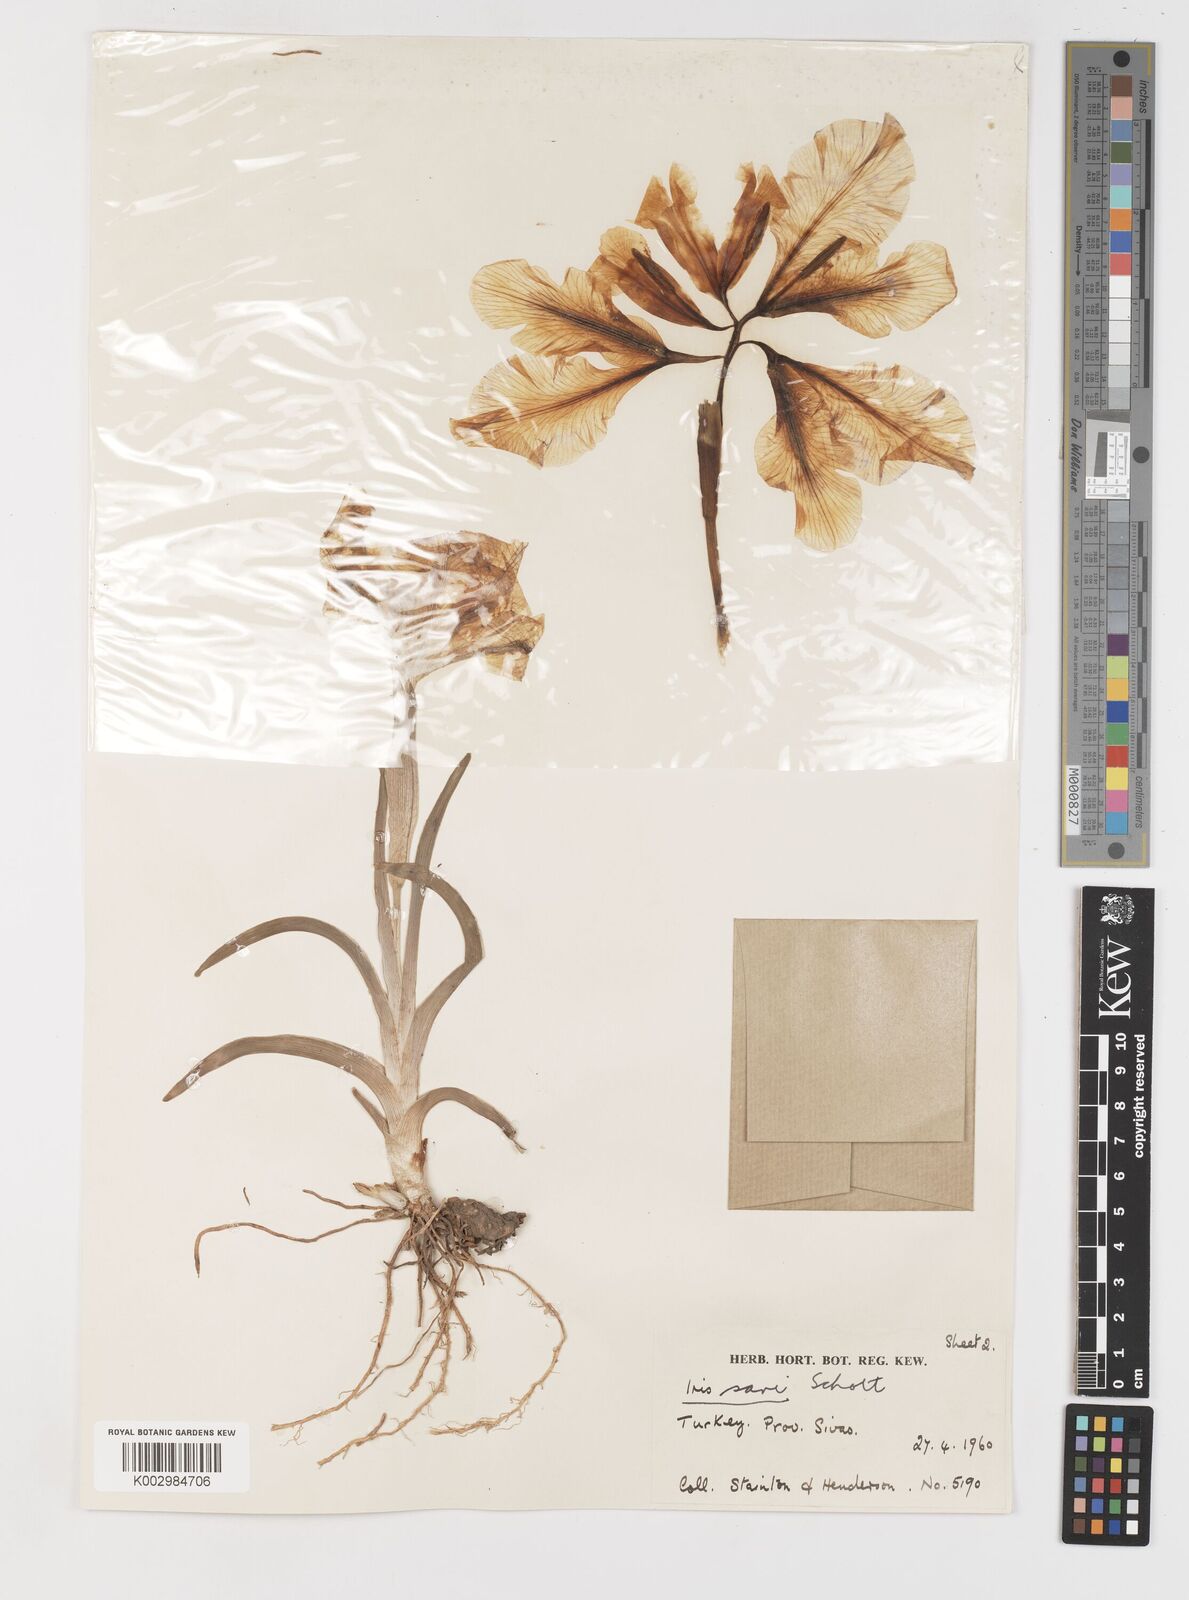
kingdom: Plantae
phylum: Tracheophyta
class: Liliopsida
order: Asparagales
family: Iridaceae
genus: Iris
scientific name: Iris sari
